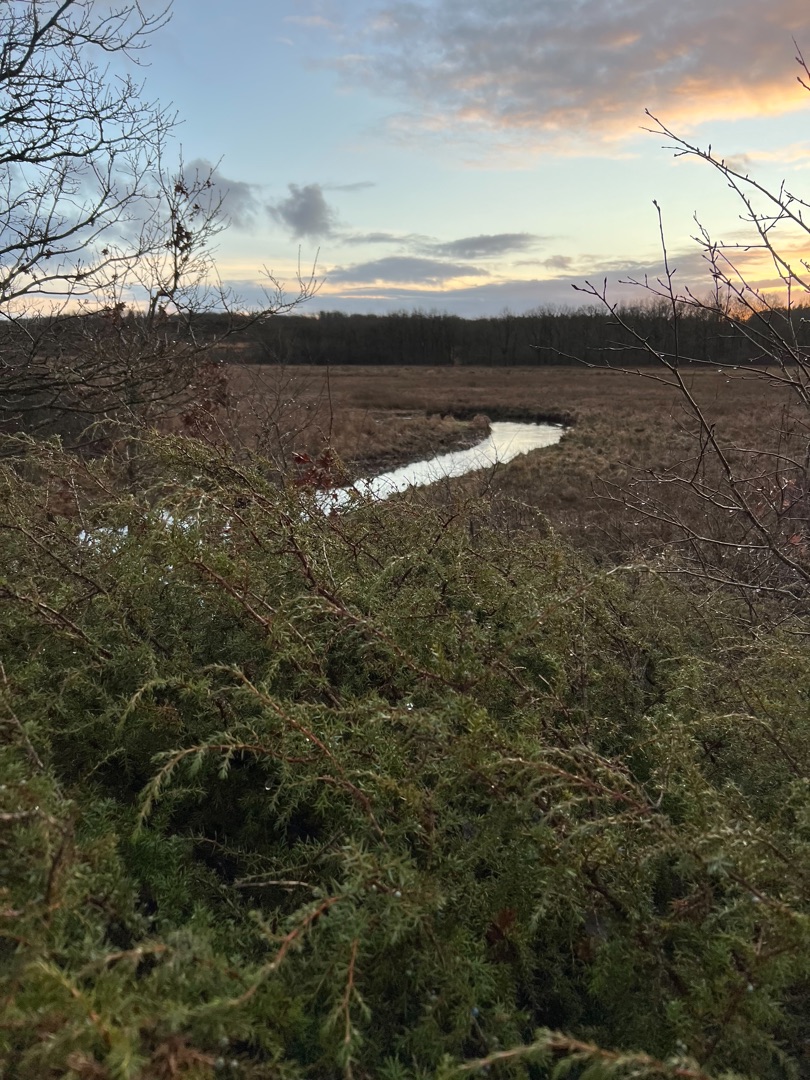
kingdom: Plantae
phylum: Tracheophyta
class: Pinopsida
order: Pinales
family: Cupressaceae
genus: Juniperus
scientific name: Juniperus communis
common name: Almindelig ene
